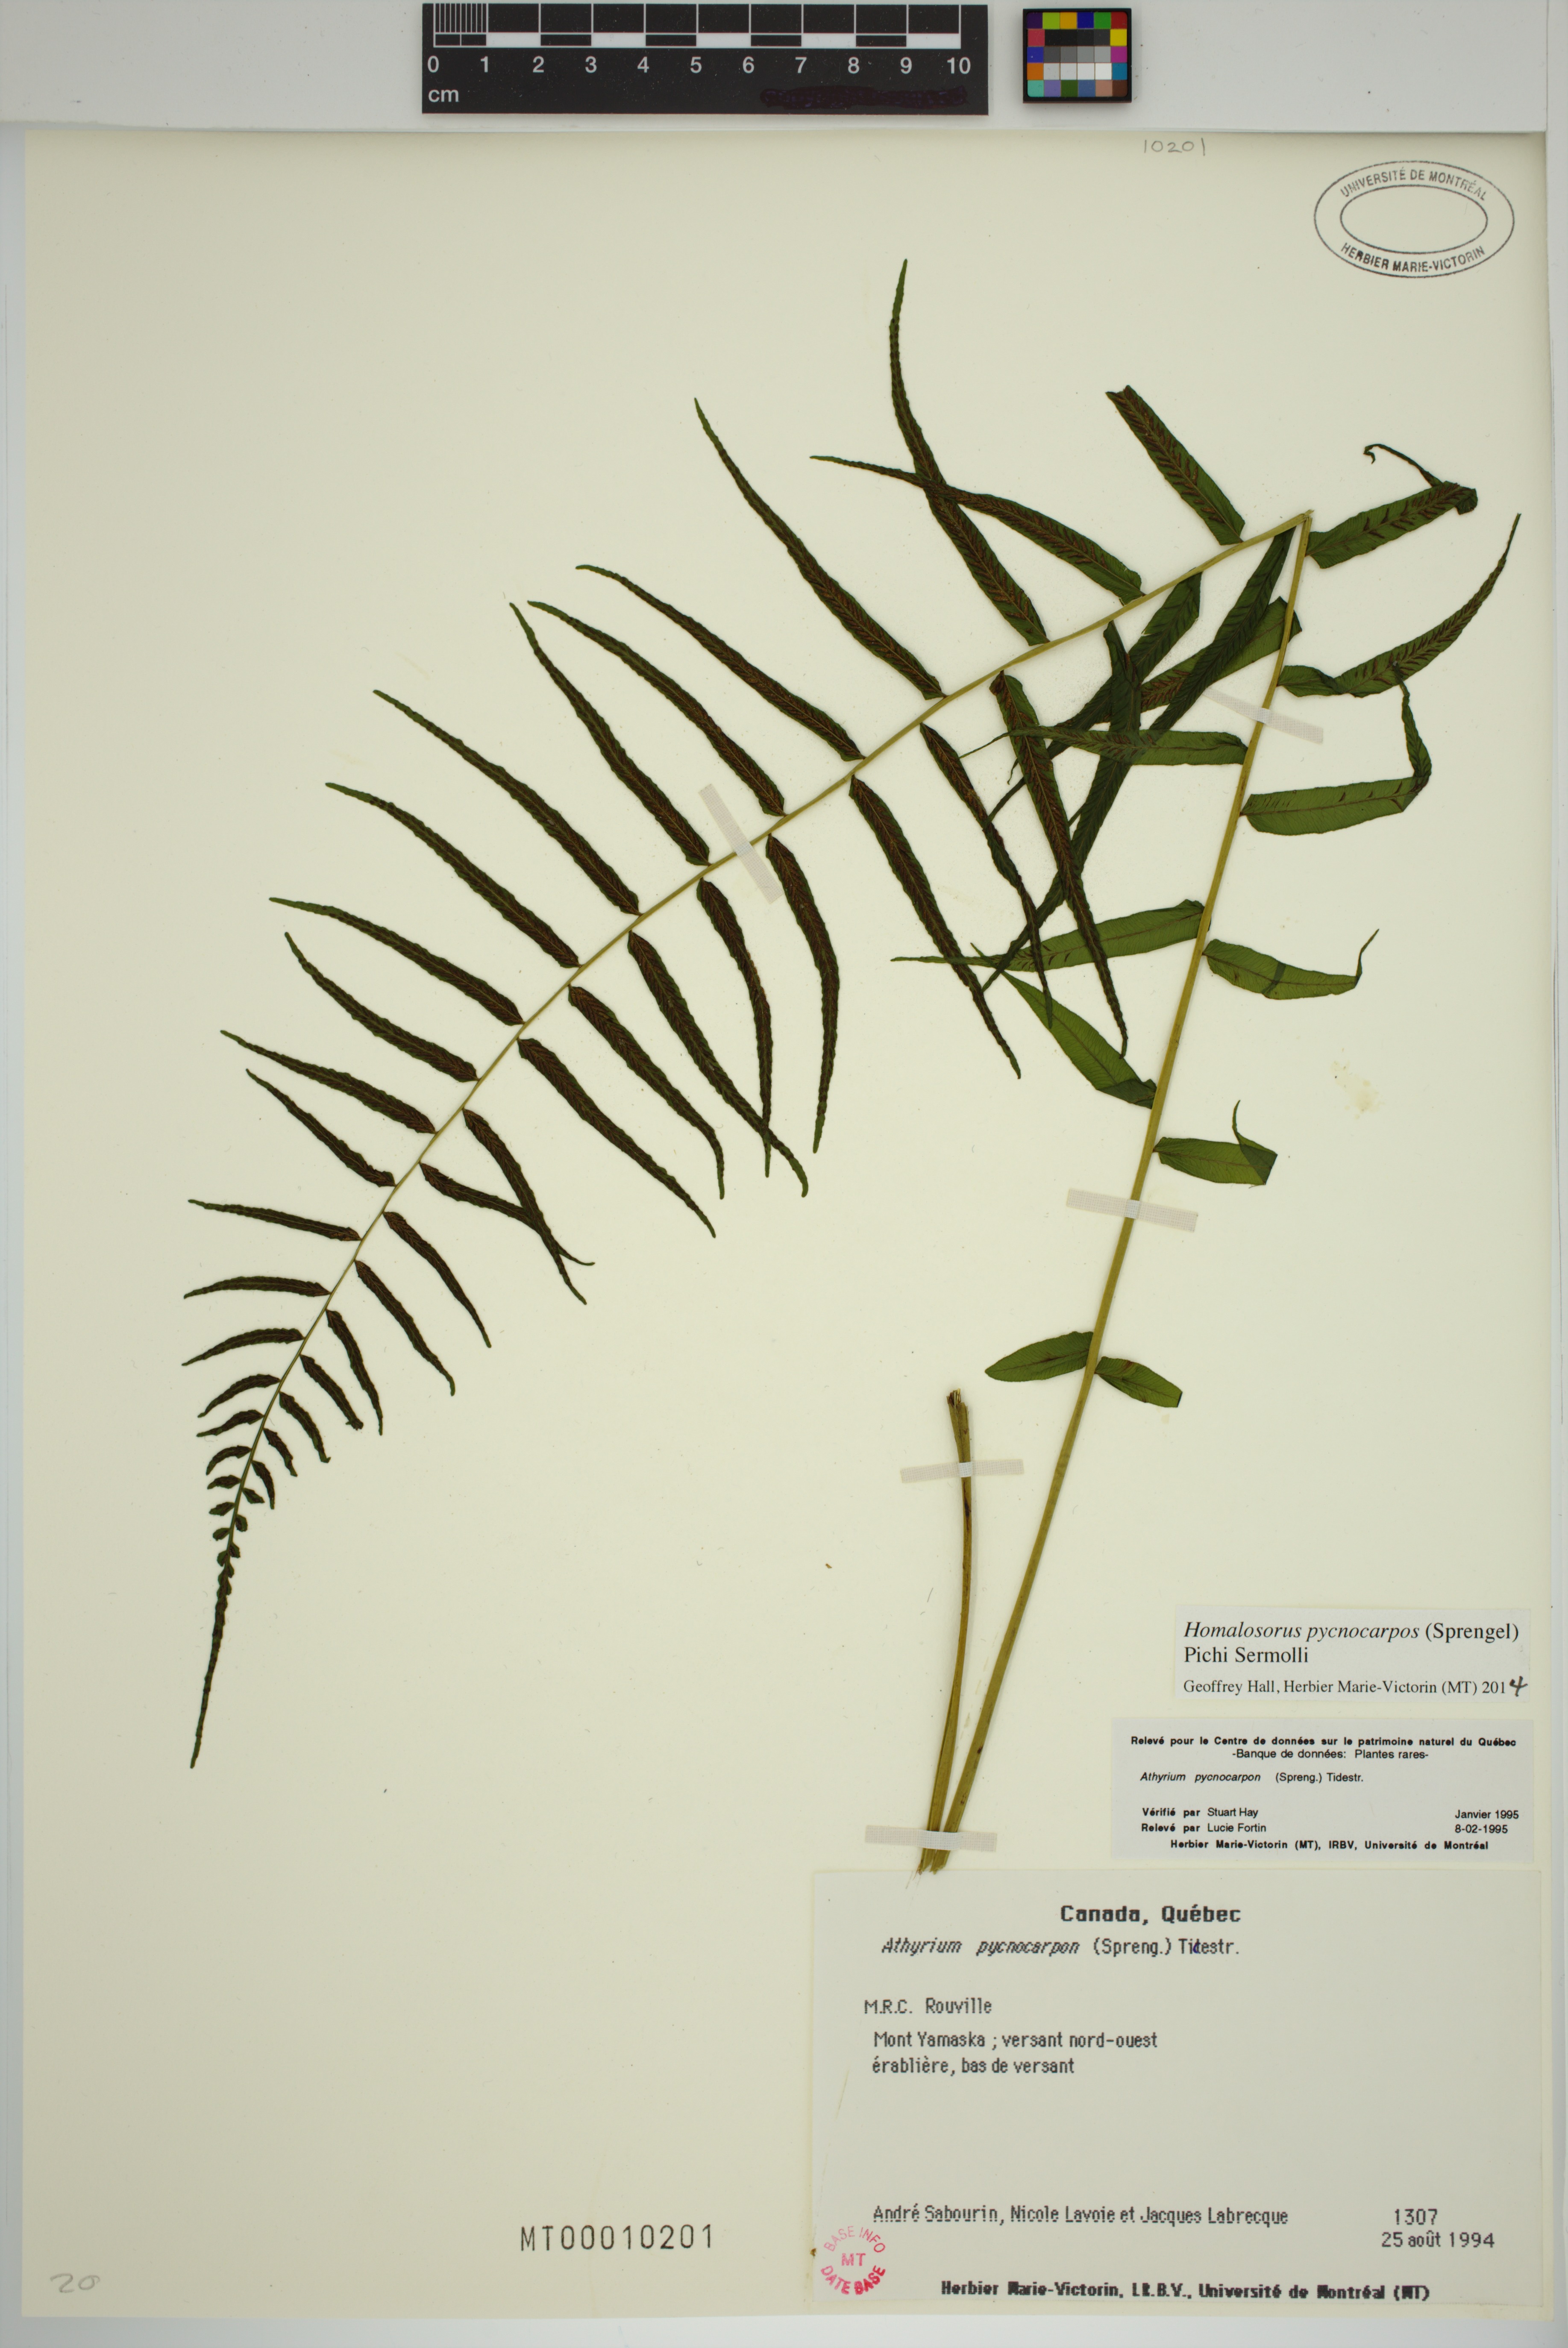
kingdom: Plantae
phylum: Tracheophyta
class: Polypodiopsida
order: Polypodiales
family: Diplaziopsidaceae
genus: Homalosorus
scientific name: Homalosorus pycnocarpos
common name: Glade fern
